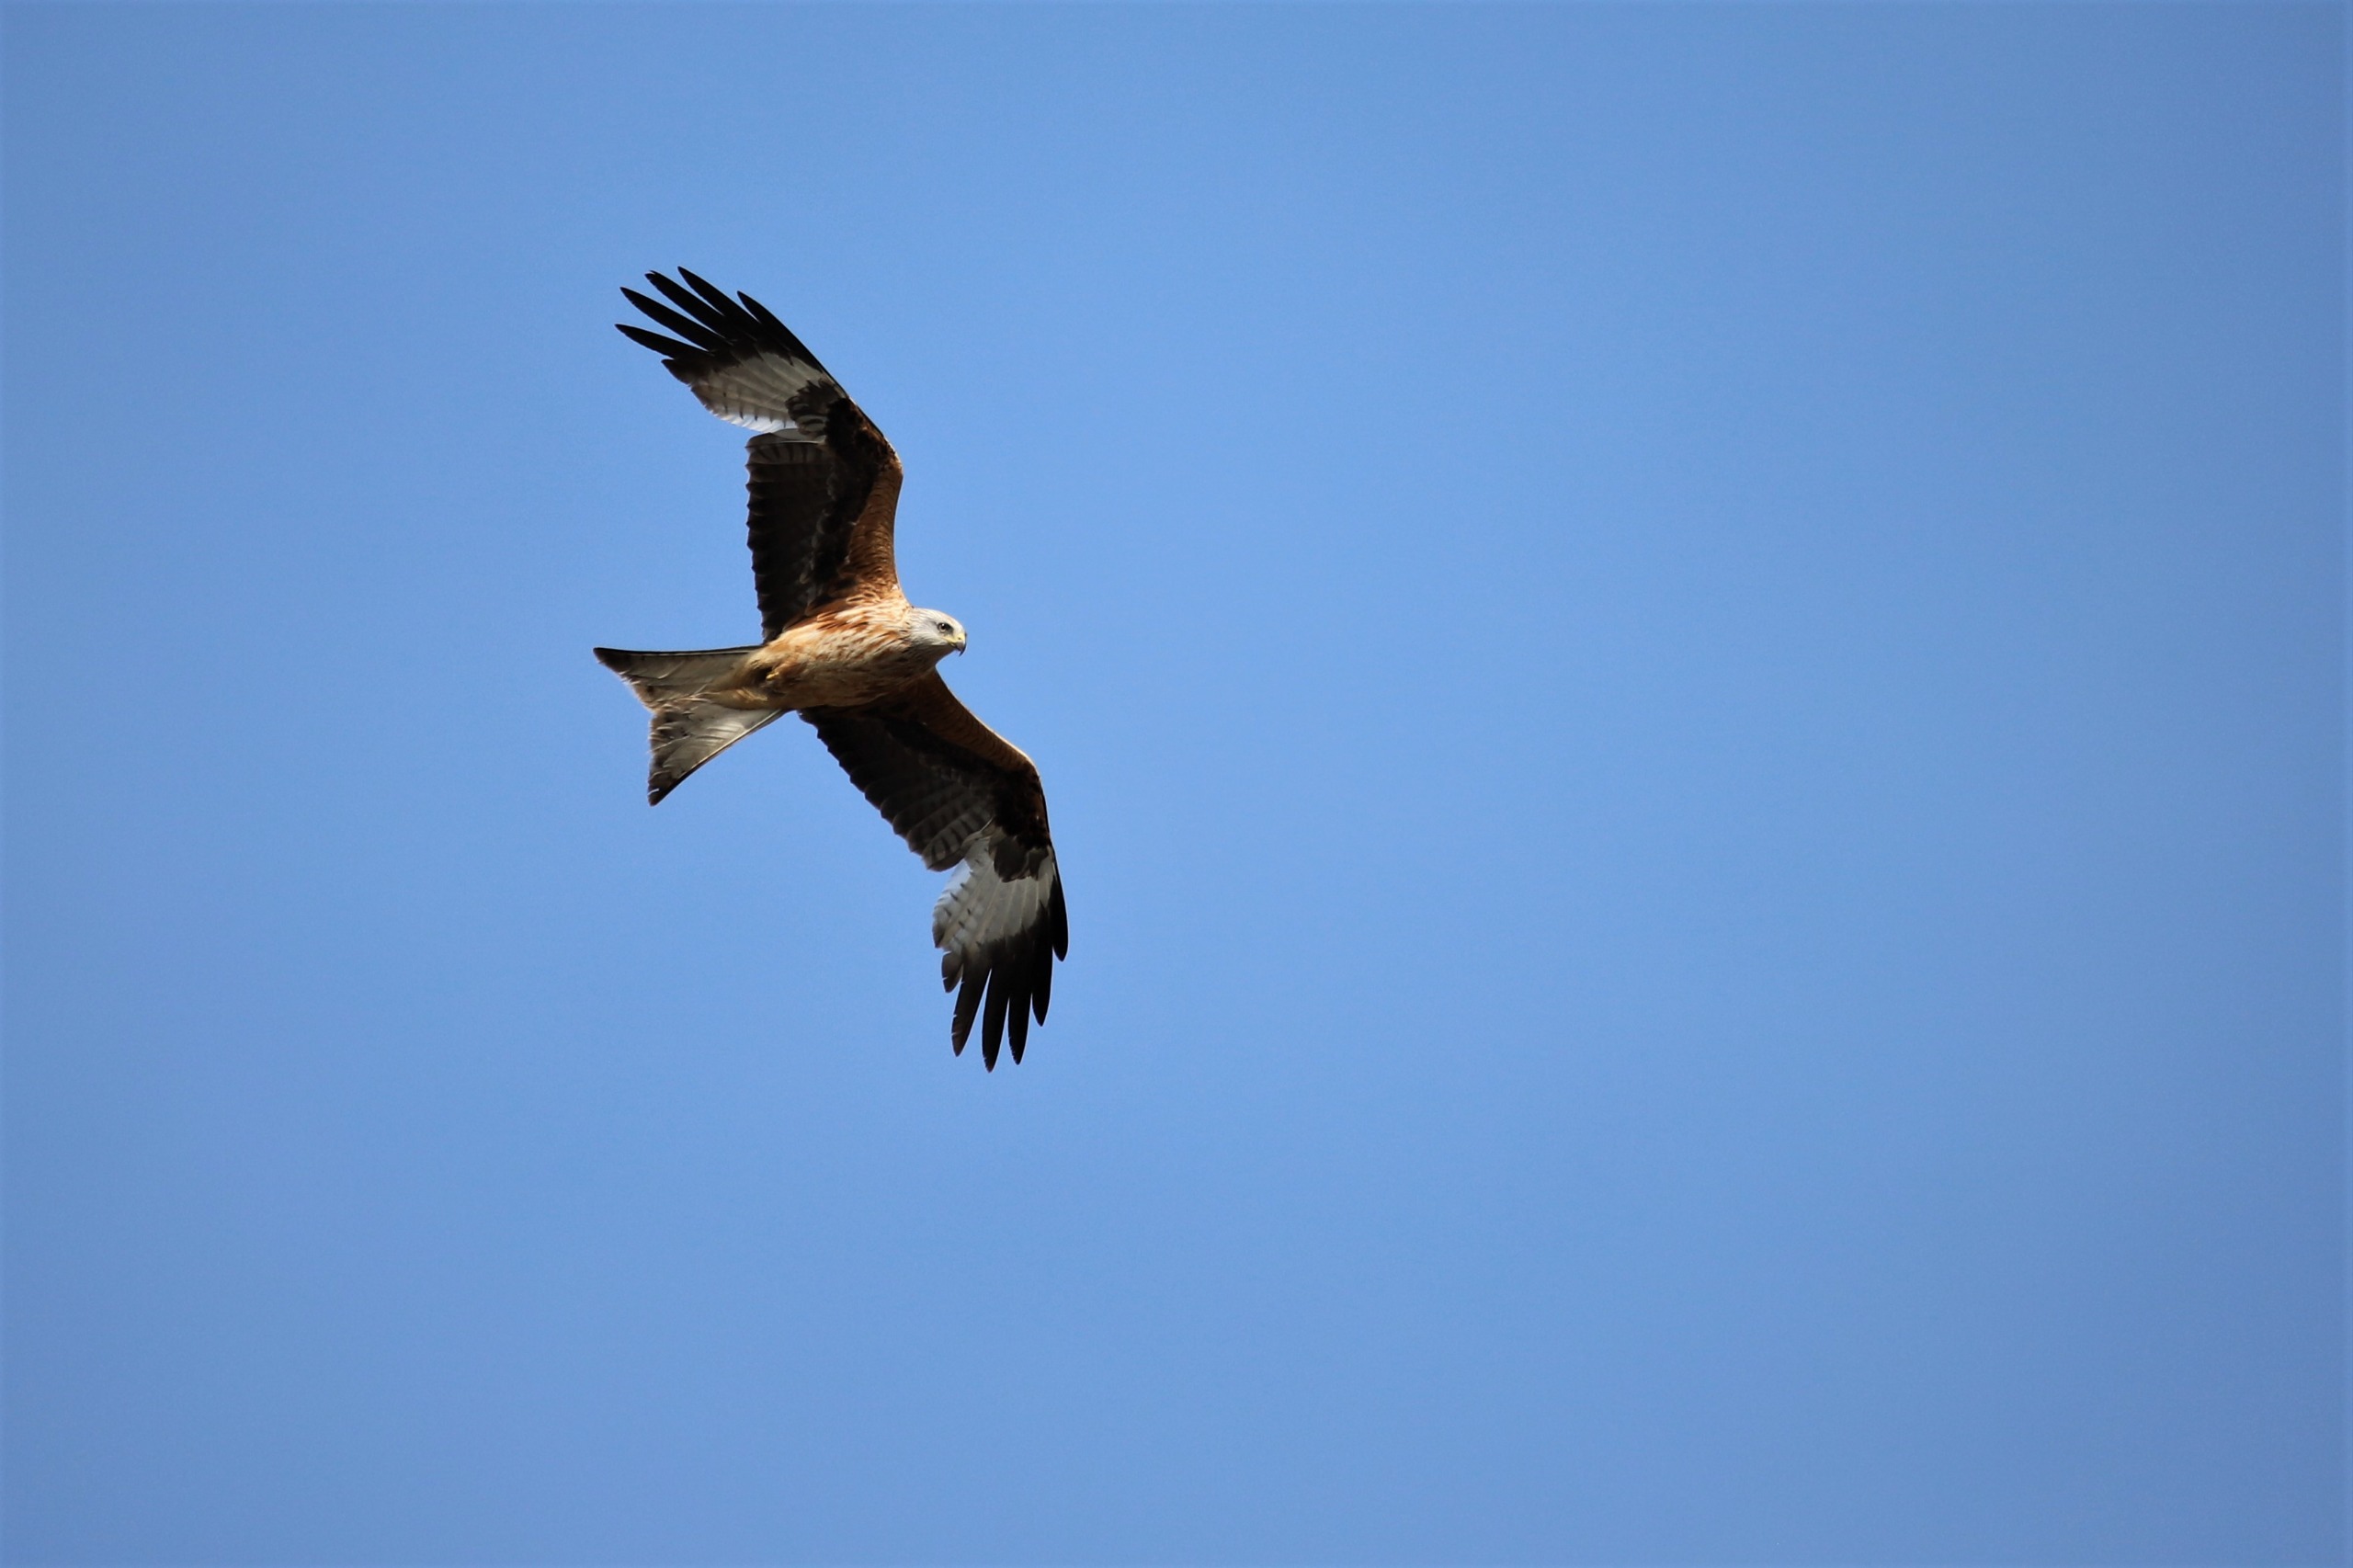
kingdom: Animalia
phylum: Chordata
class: Aves
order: Accipitriformes
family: Accipitridae
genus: Milvus
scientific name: Milvus milvus
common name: Rød glente
